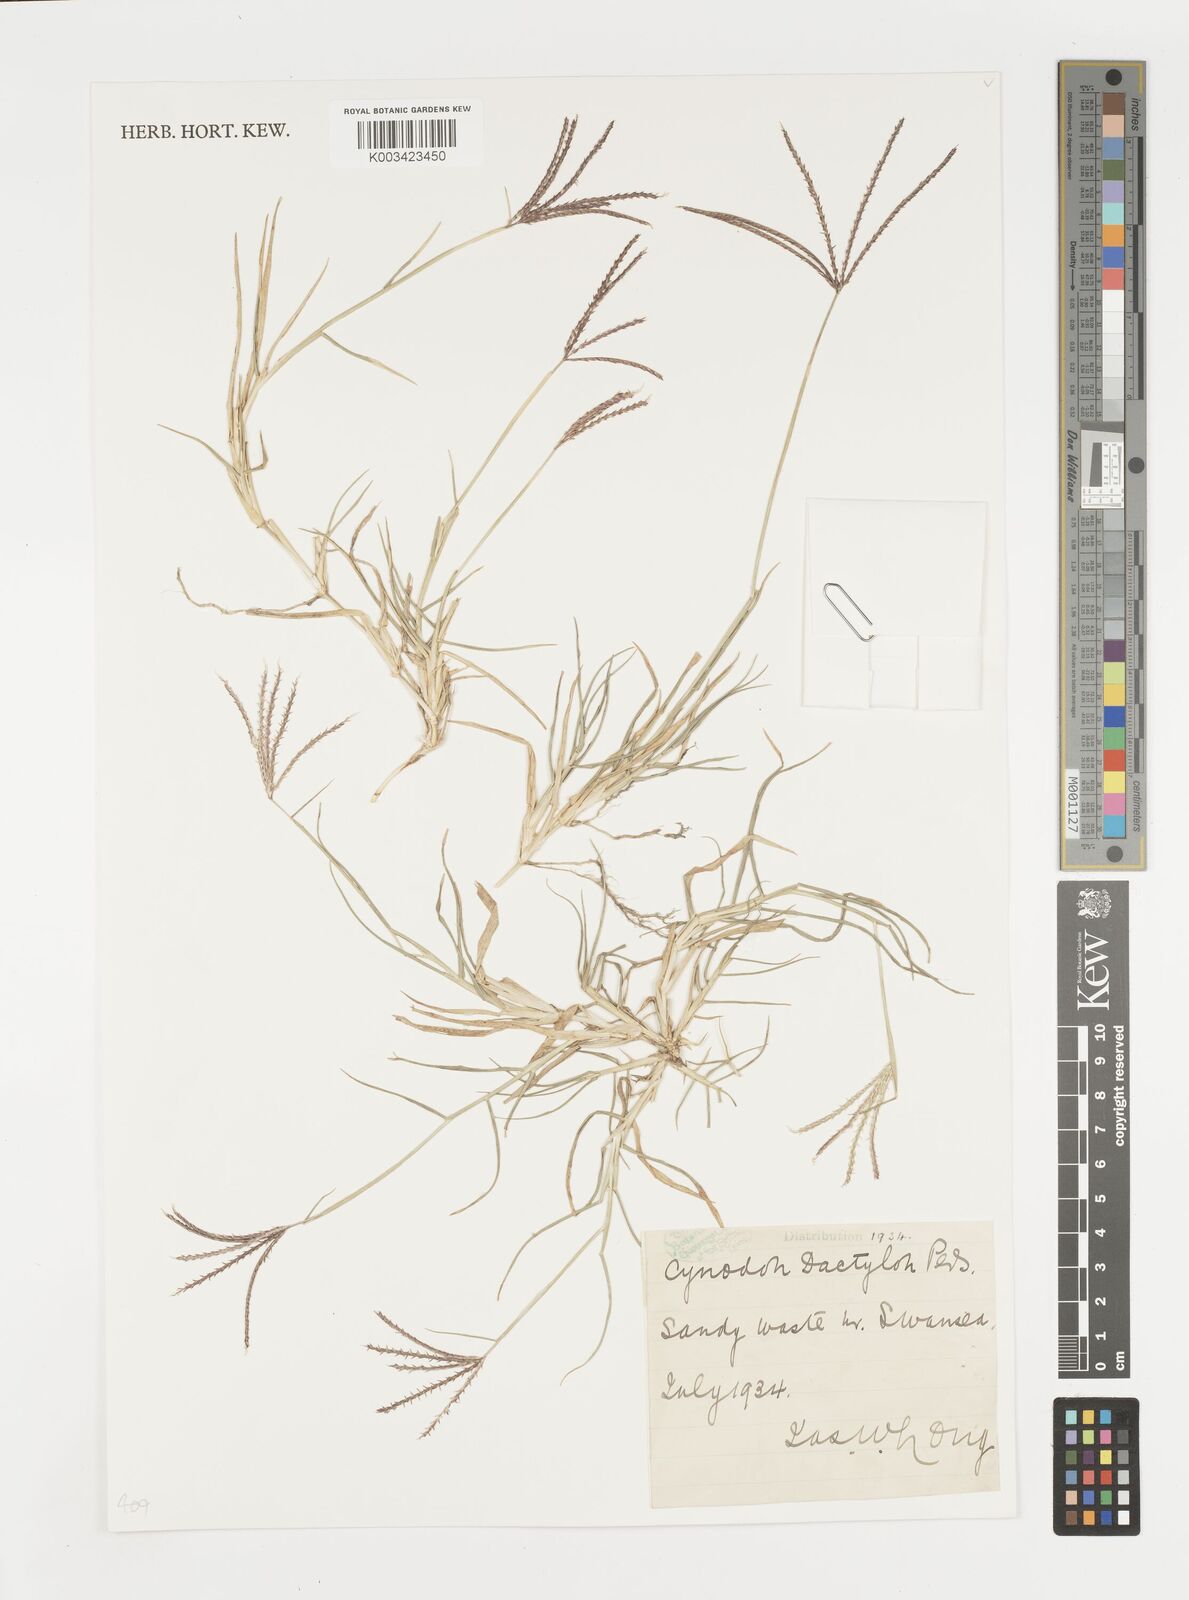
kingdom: Plantae
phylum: Tracheophyta
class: Liliopsida
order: Poales
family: Poaceae
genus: Cynodon
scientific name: Cynodon dactylon
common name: Bermuda grass
